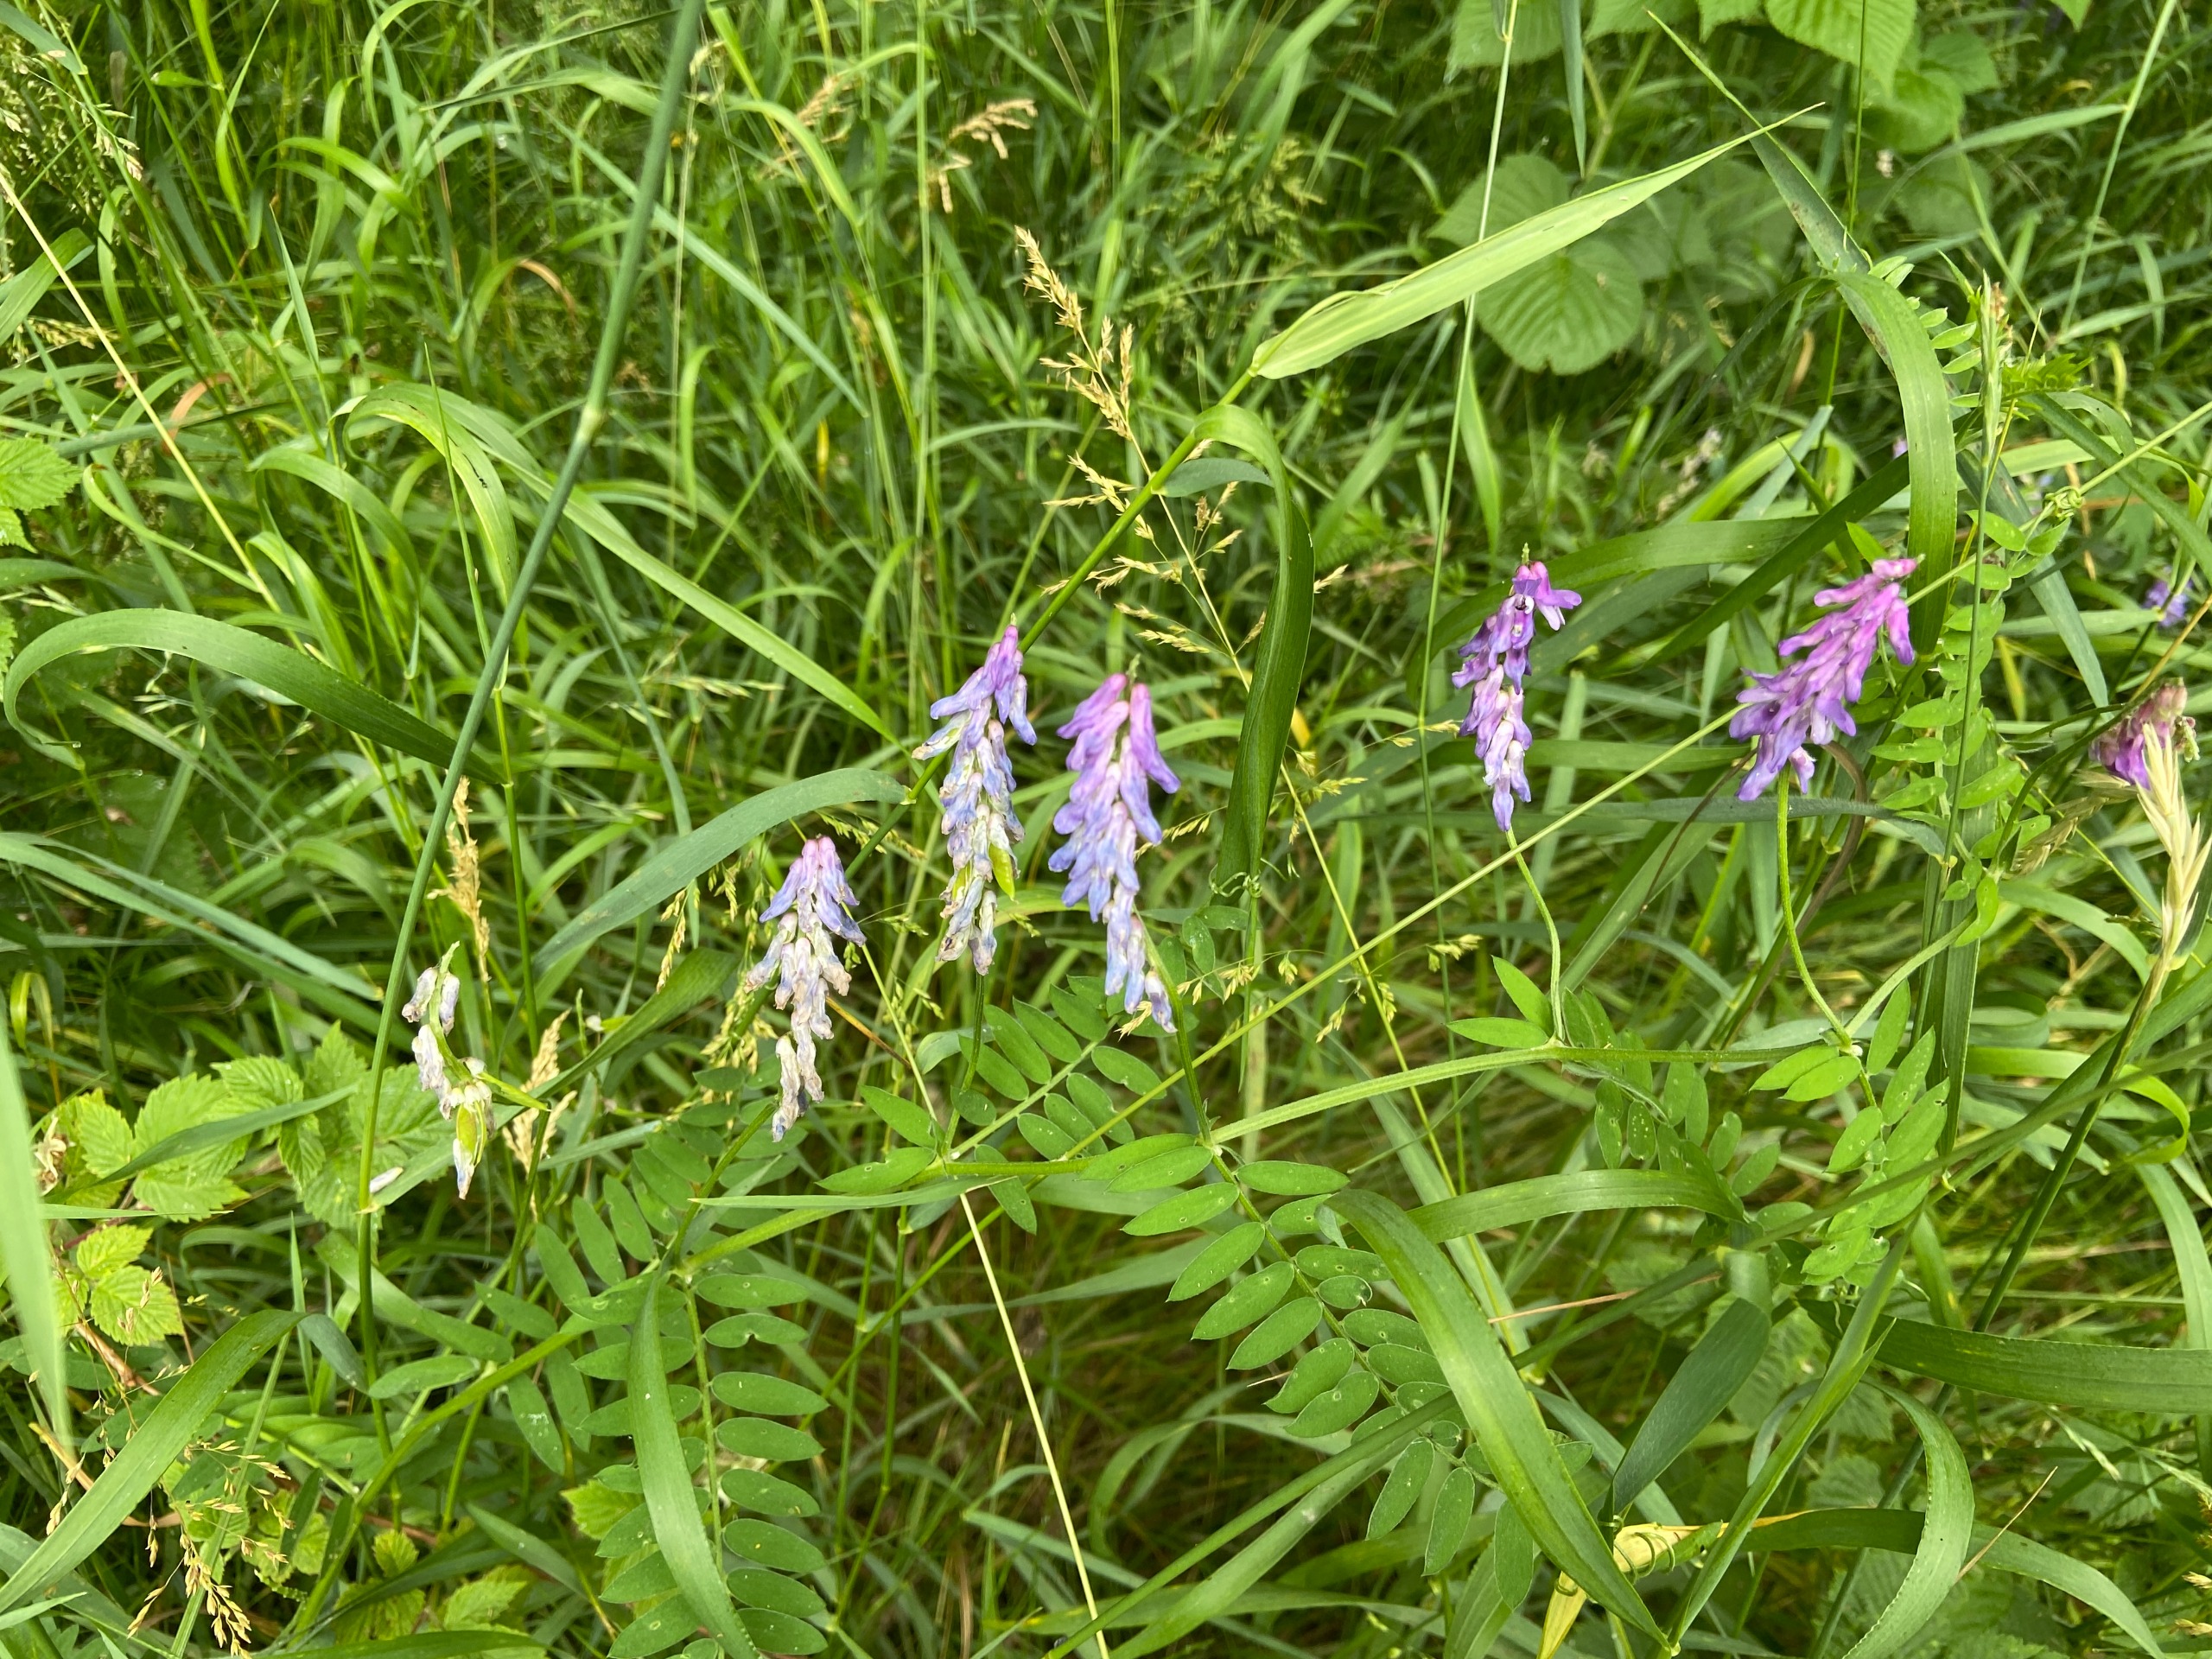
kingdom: Plantae
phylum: Tracheophyta
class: Magnoliopsida
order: Fabales
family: Fabaceae
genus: Vicia
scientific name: Vicia cracca
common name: Muse-vikke
